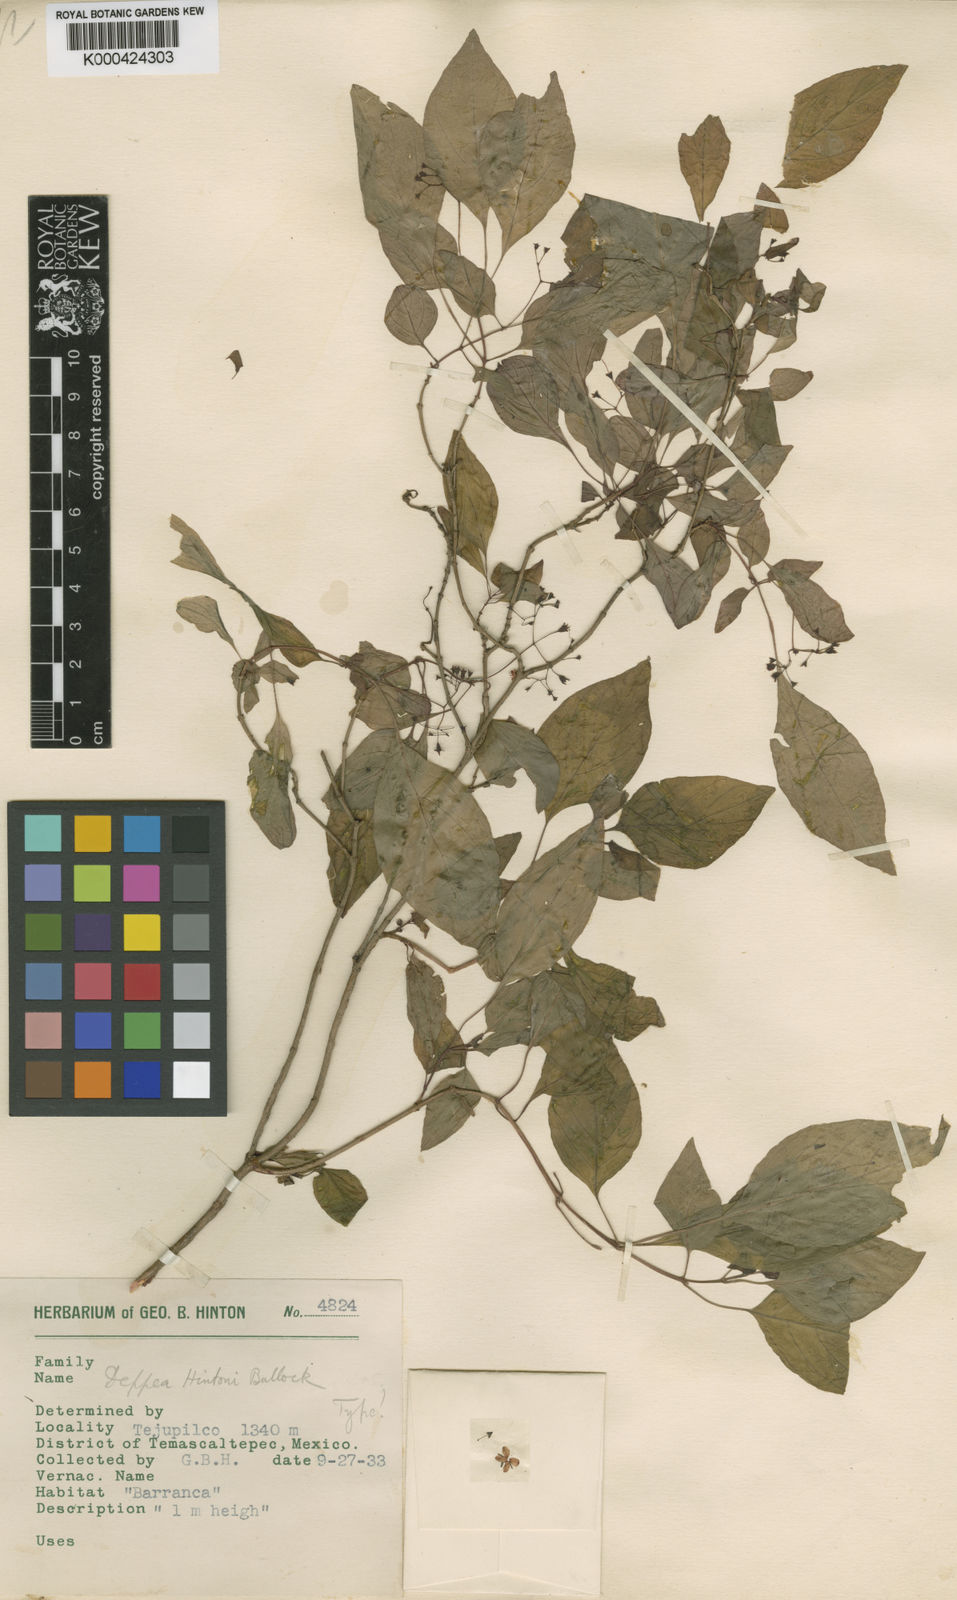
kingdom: Plantae
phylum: Tracheophyta
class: Magnoliopsida
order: Gentianales
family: Rubiaceae
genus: Deppea
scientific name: Deppea hintonii
